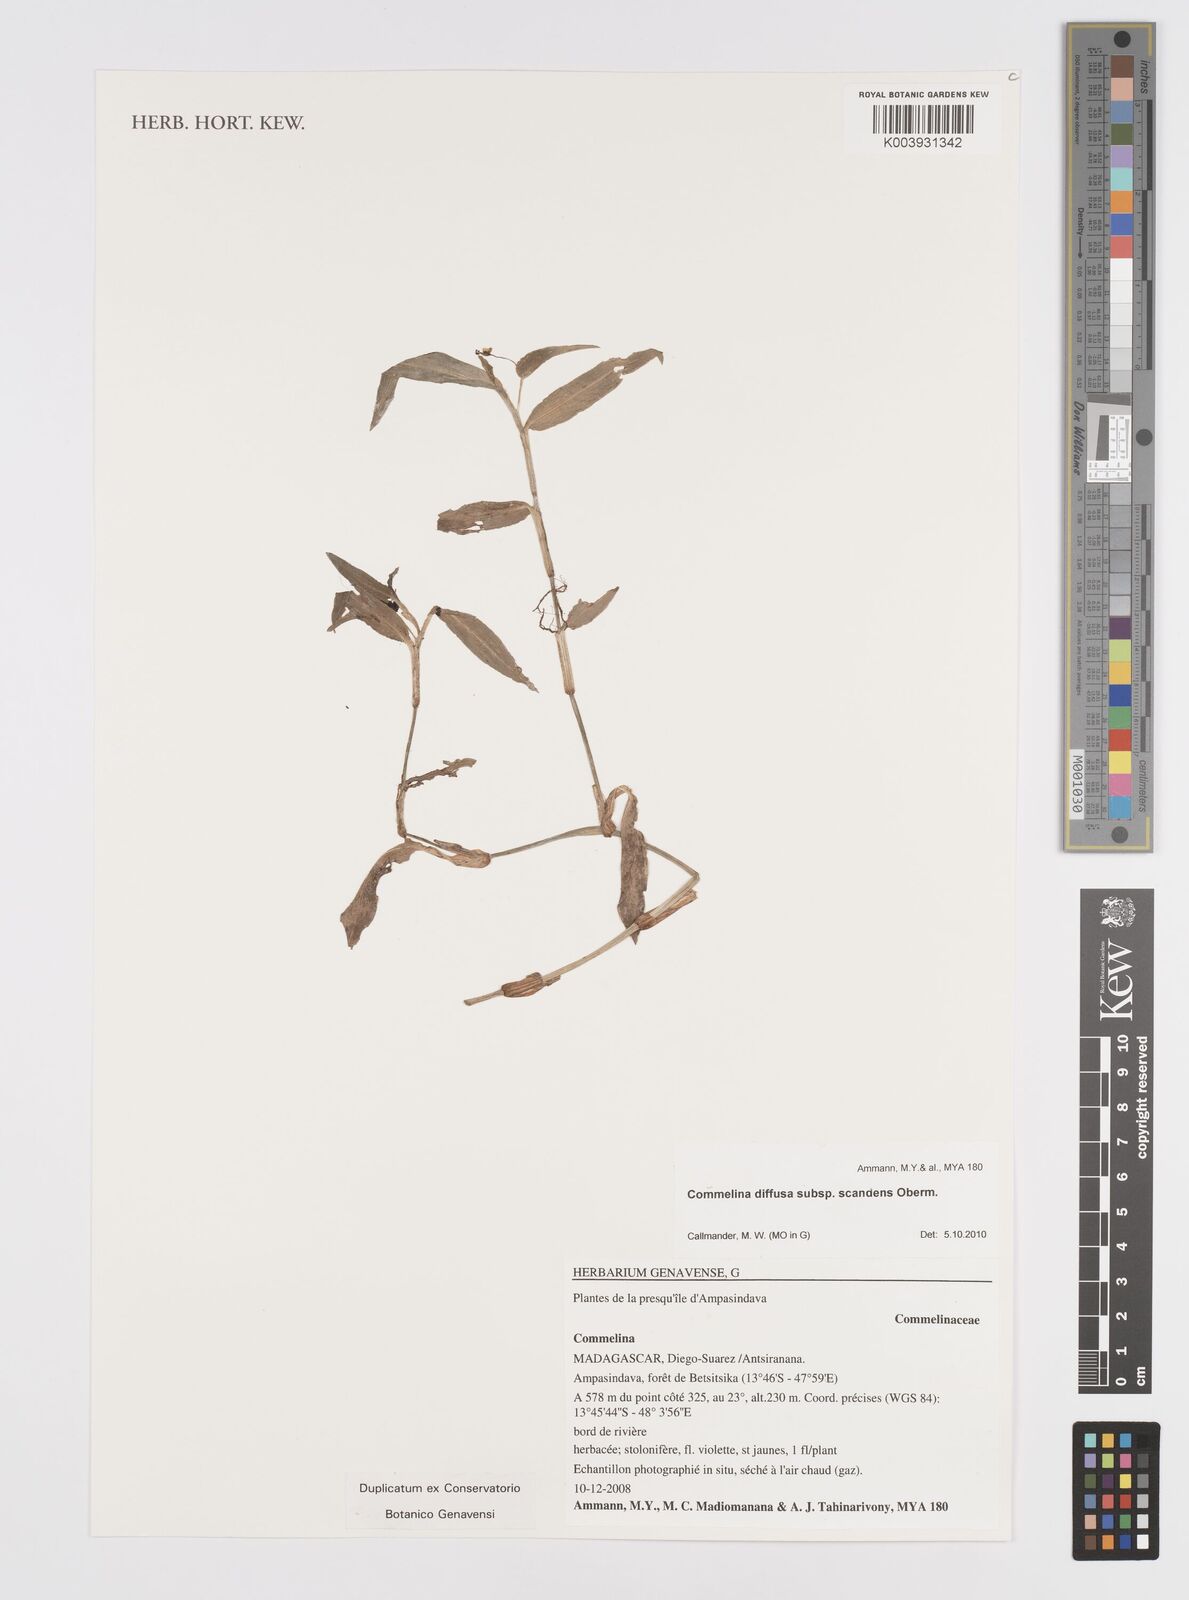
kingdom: Plantae
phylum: Tracheophyta
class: Liliopsida
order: Commelinales
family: Commelinaceae
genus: Commelina
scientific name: Commelina scandens
